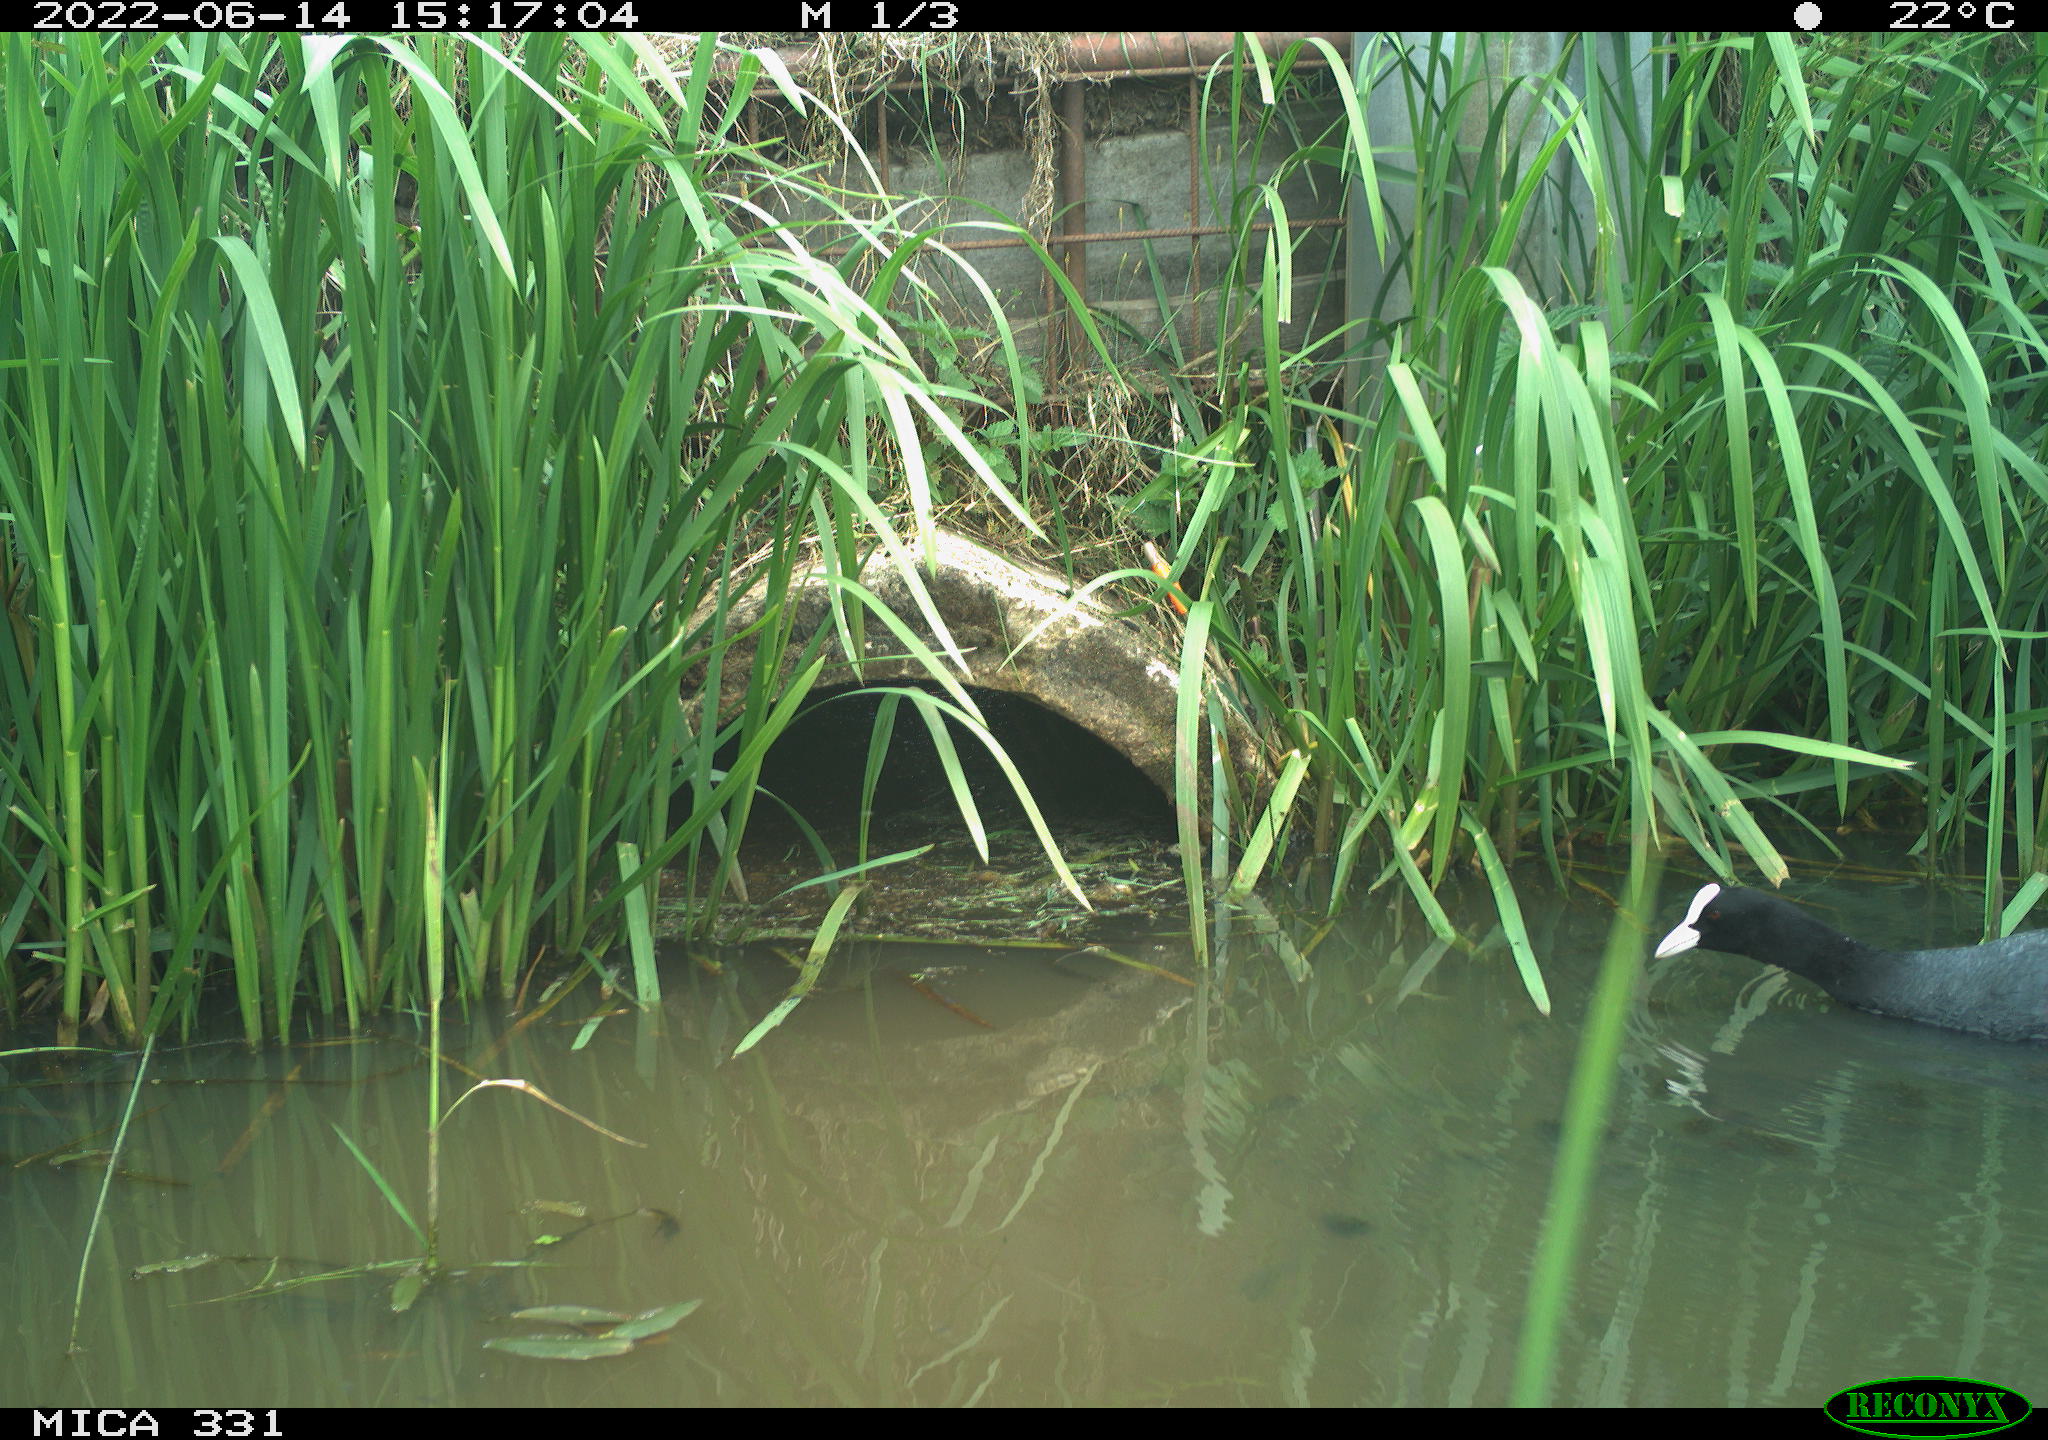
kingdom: Animalia
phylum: Chordata
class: Aves
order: Gruiformes
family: Rallidae
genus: Fulica
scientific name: Fulica atra
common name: Eurasian coot
